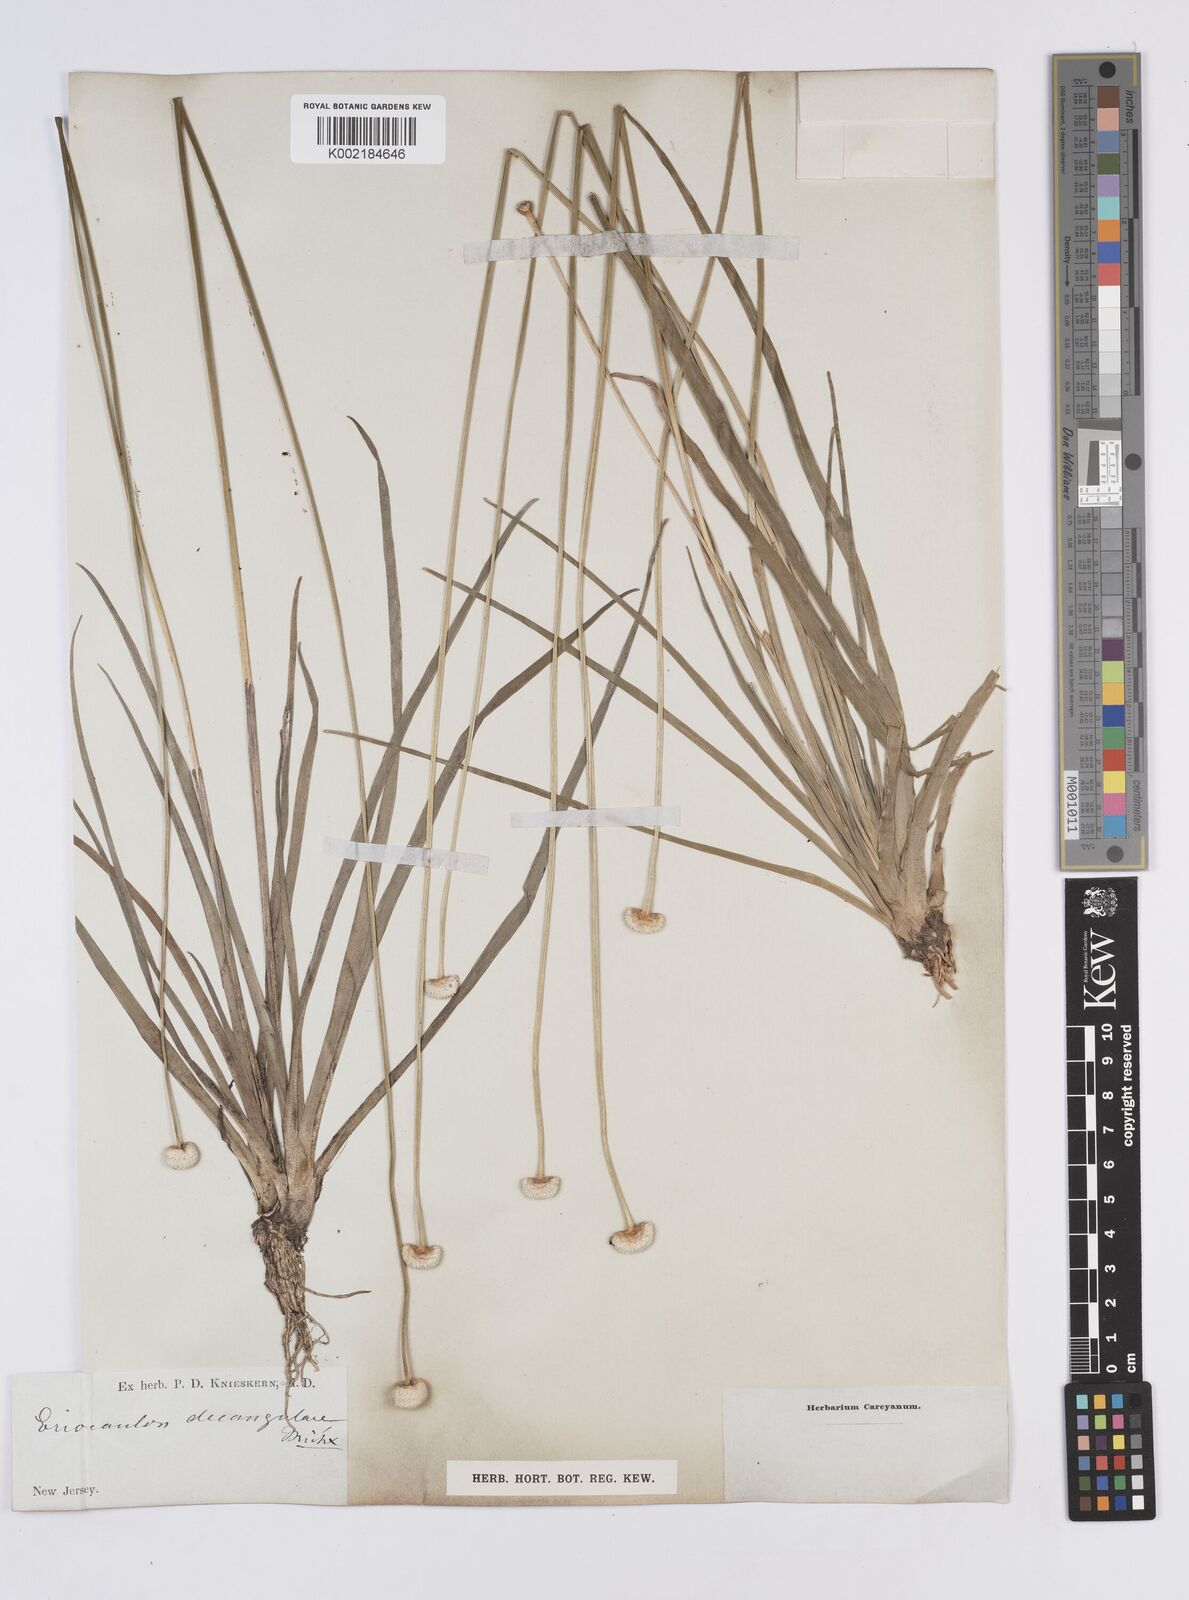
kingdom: Plantae
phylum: Tracheophyta
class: Liliopsida
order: Poales
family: Eriocaulaceae
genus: Eriocaulon
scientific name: Eriocaulon decangulare
